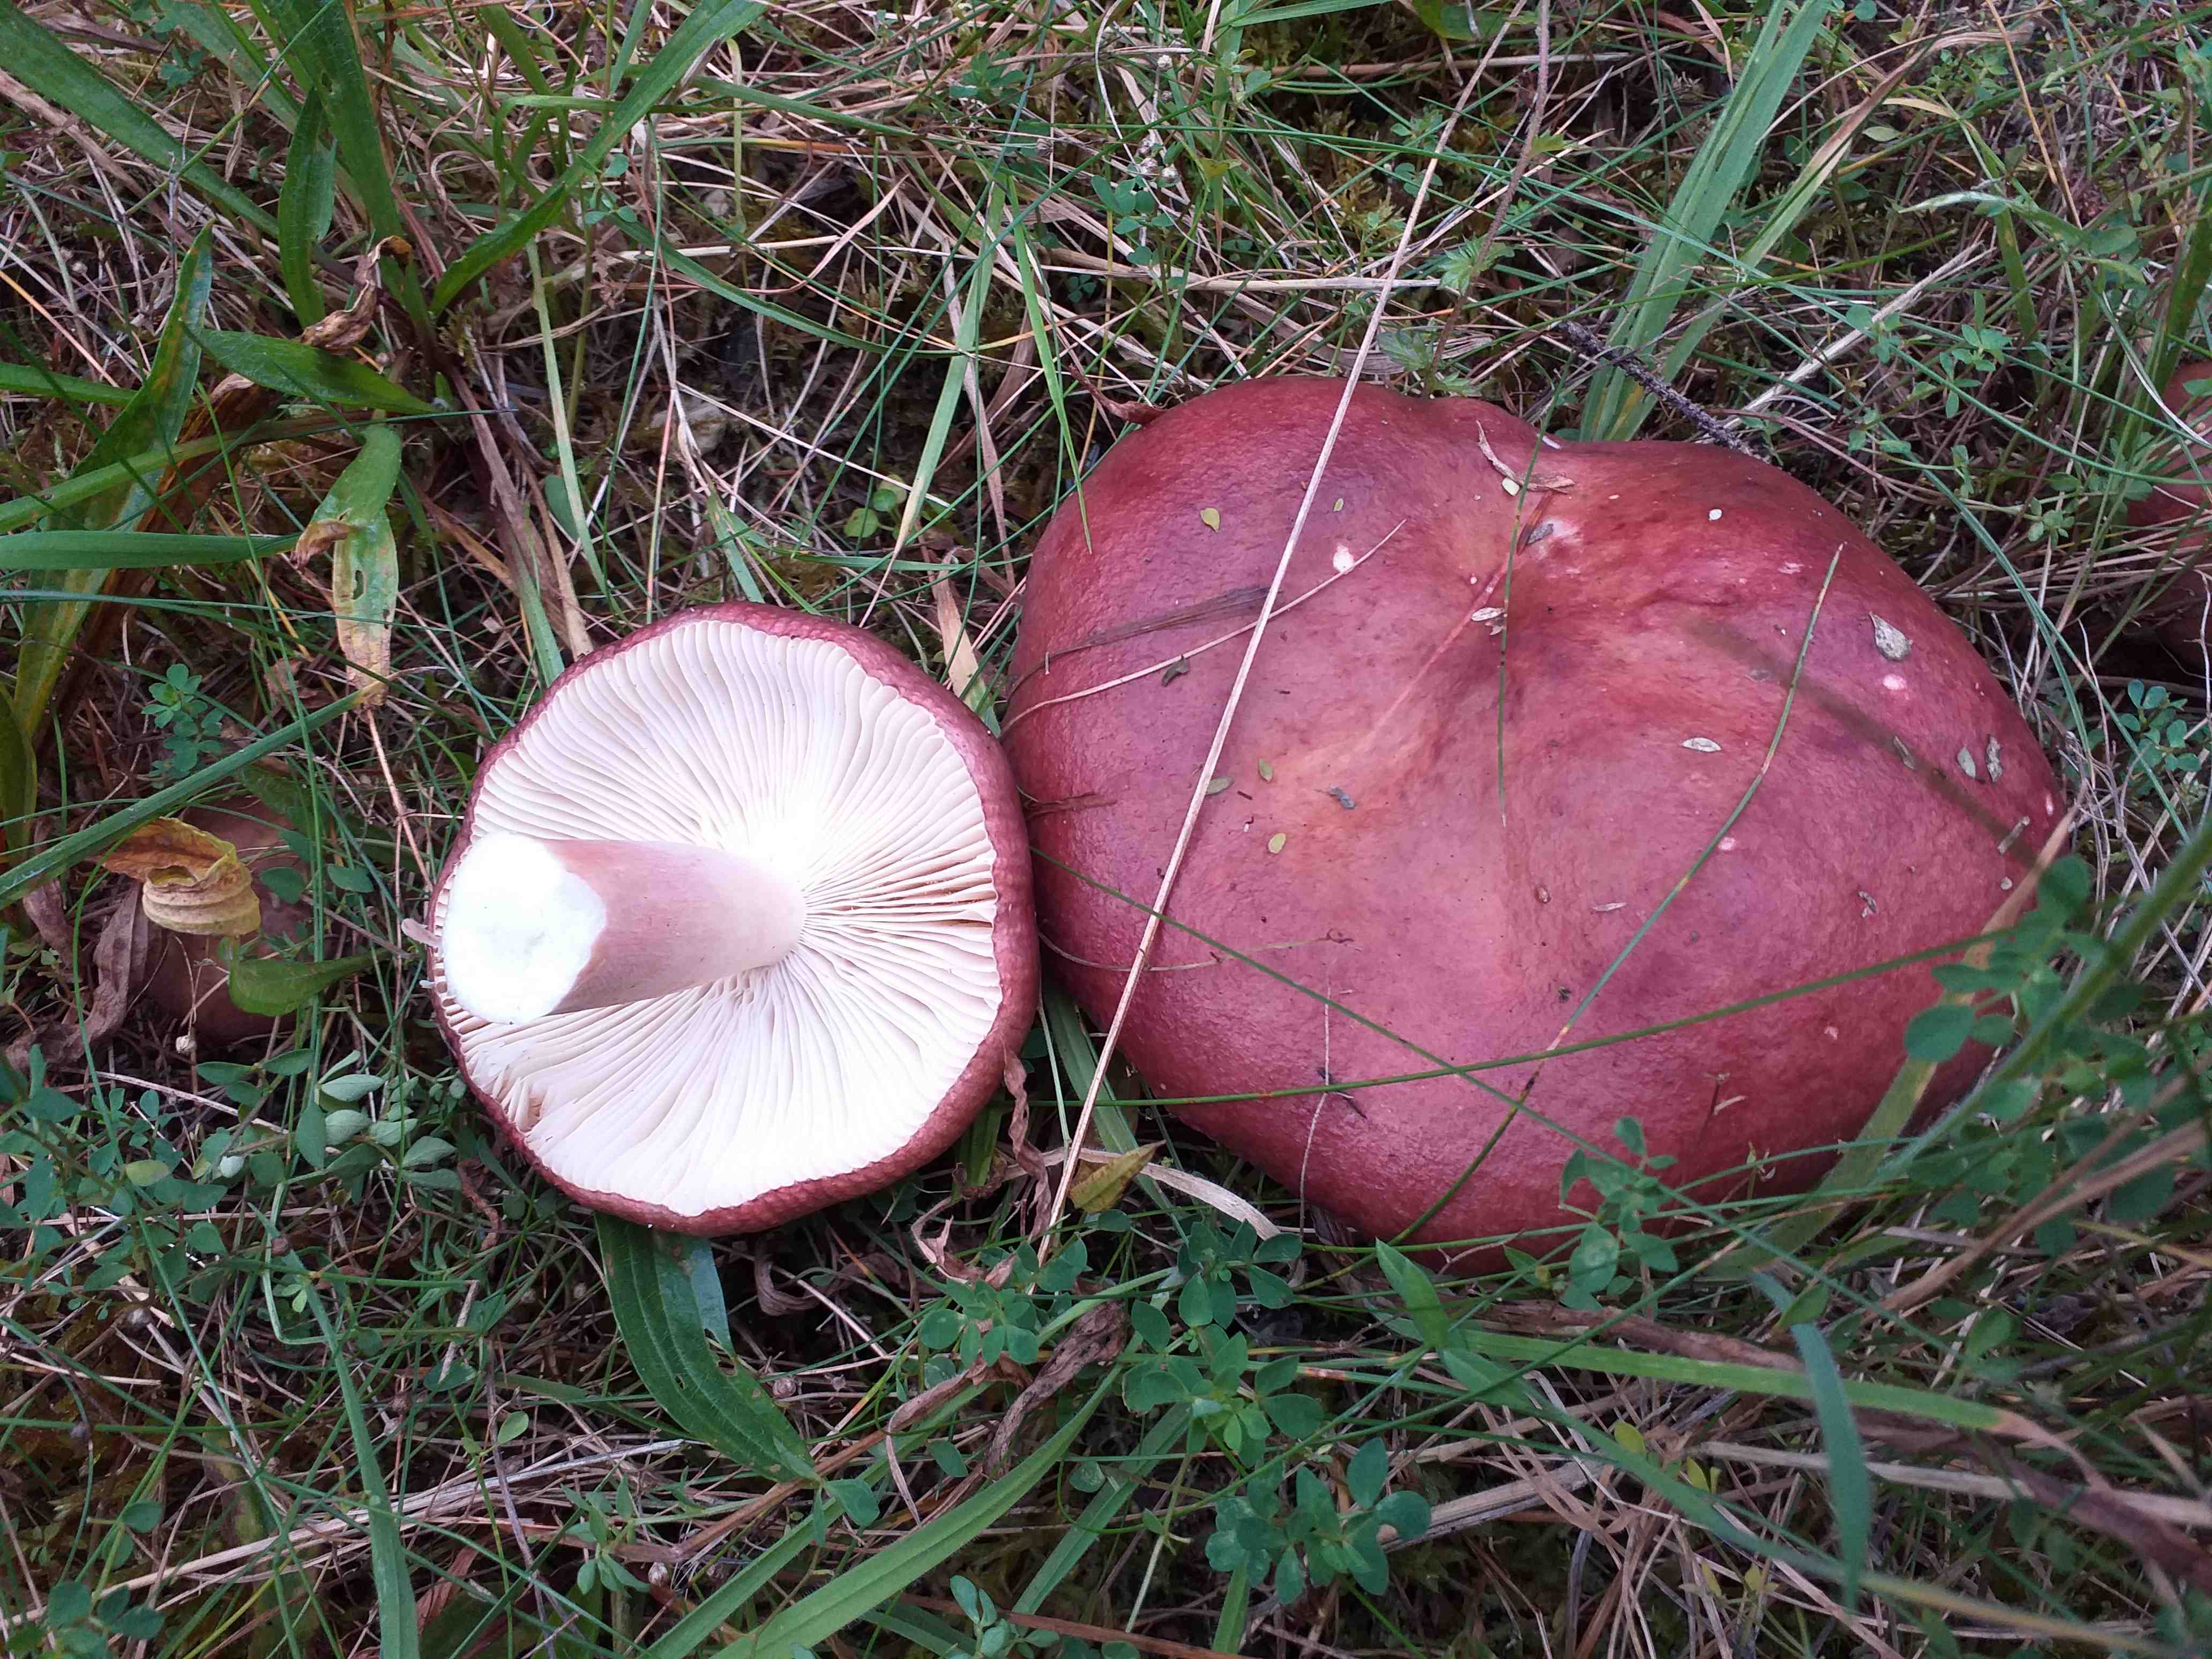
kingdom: Fungi
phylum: Basidiomycota
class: Agaricomycetes
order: Russulales
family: Russulaceae
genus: Russula
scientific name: Russula xerampelina
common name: hummer-skørhat
